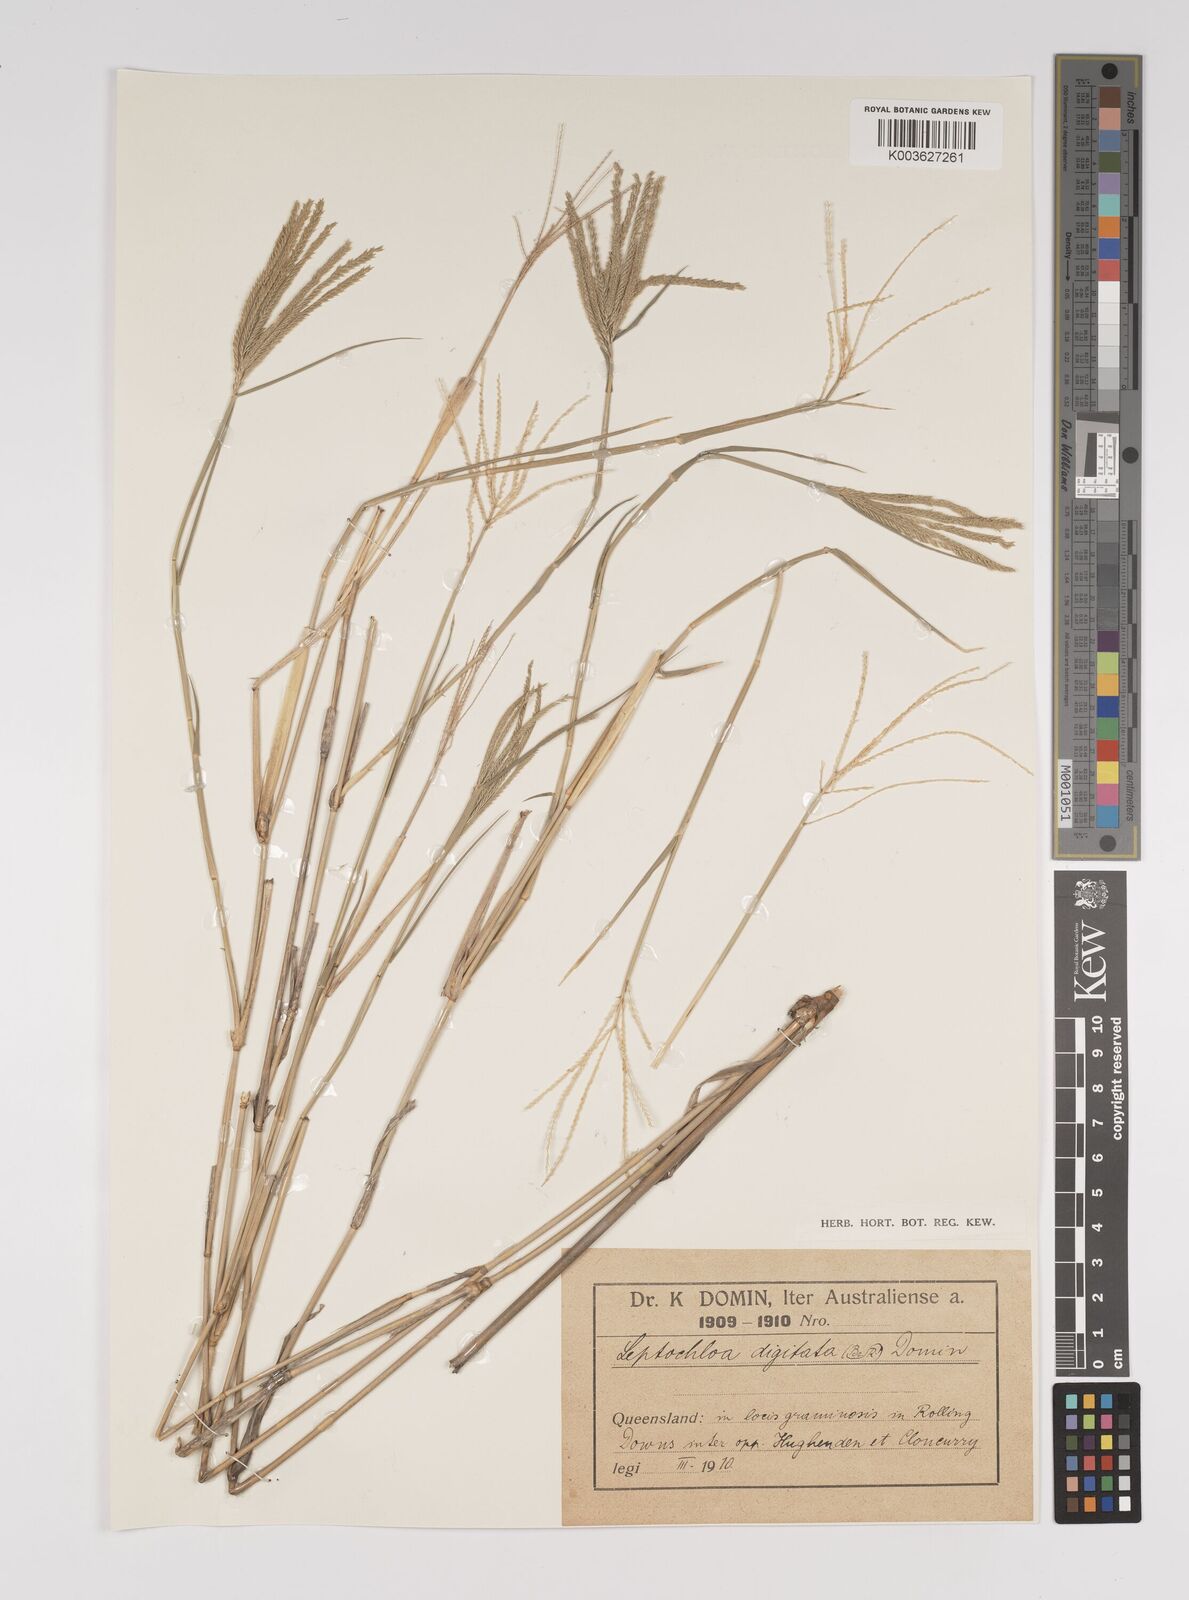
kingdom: Plantae
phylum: Tracheophyta
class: Liliopsida
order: Poales
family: Poaceae
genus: Leptochloa
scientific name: Leptochloa digitata
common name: Finger sprangletop
